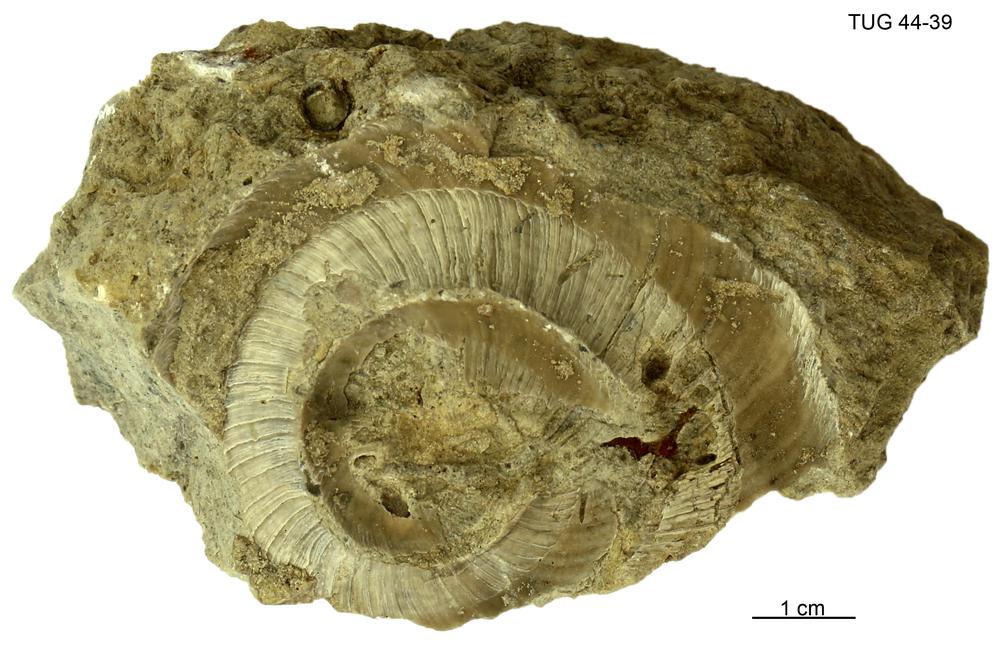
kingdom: Animalia
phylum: Mollusca
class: Cephalopoda
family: Trocholitidae
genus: Schroederoceras
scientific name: Schroederoceras
